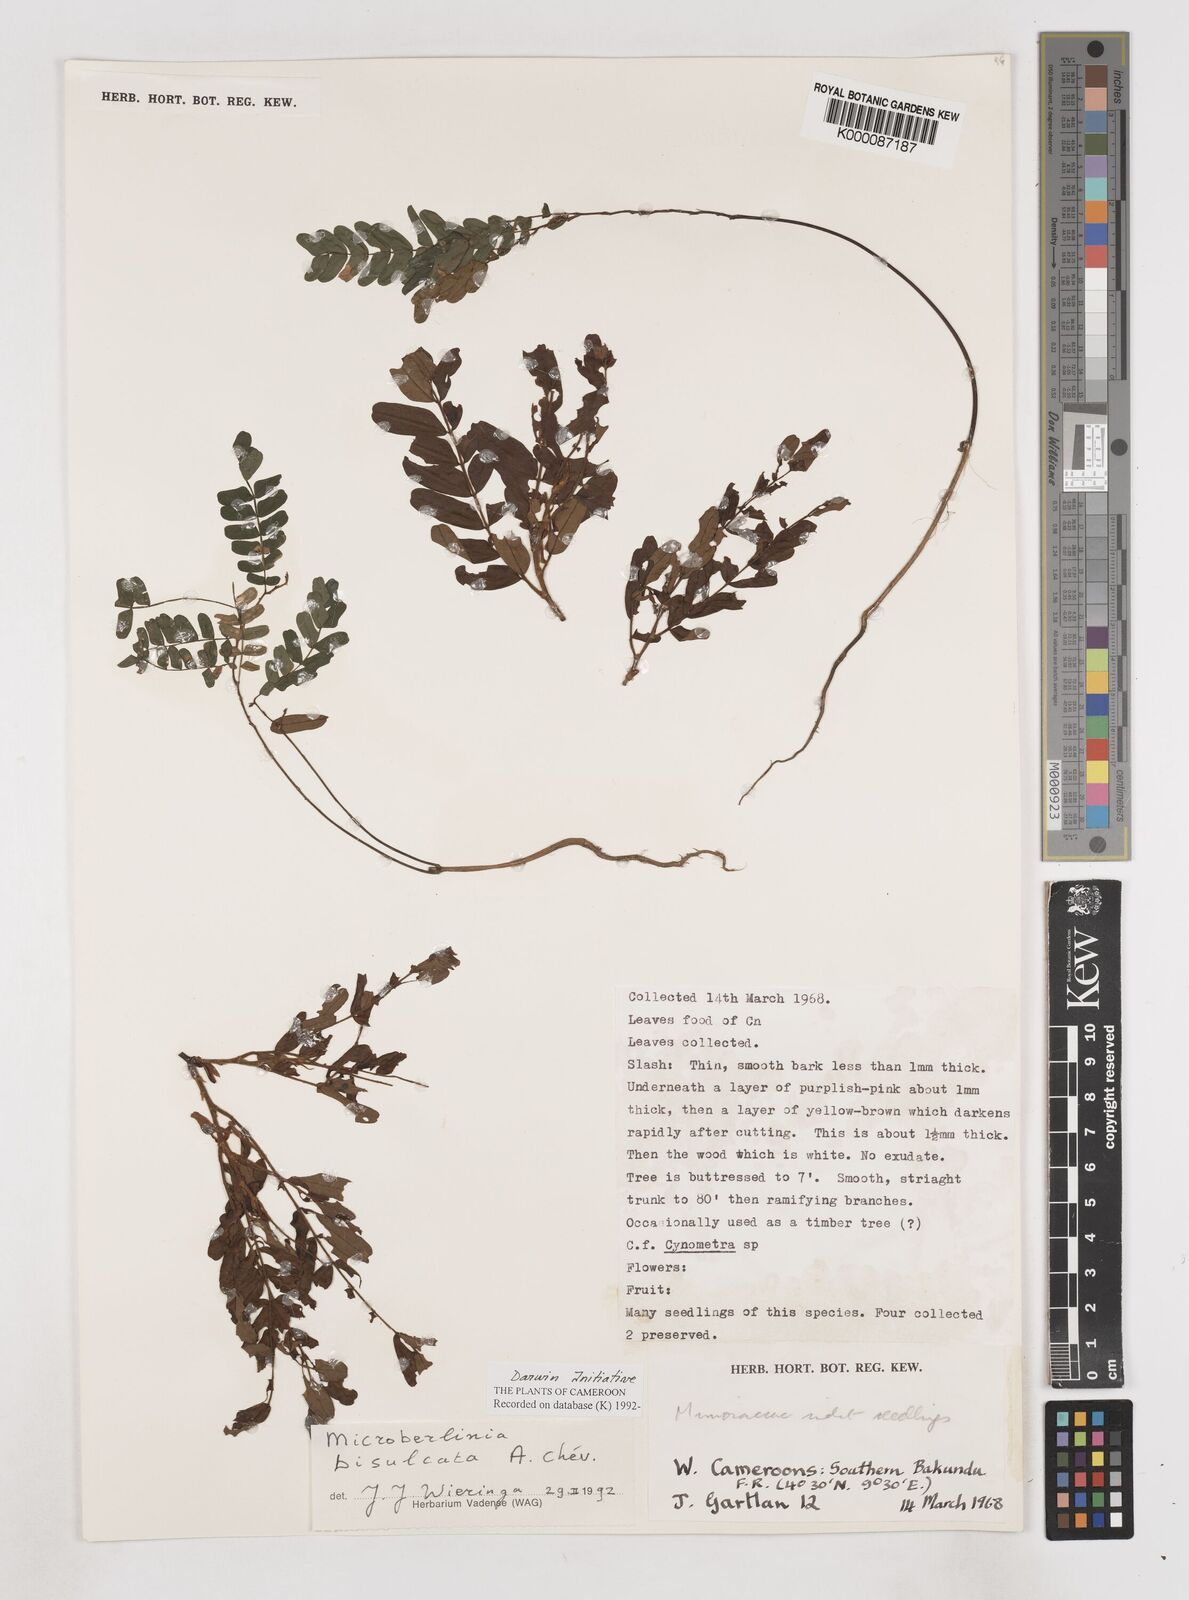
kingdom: Plantae
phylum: Tracheophyta
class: Magnoliopsida
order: Fabales
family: Fabaceae
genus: Microberlinia
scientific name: Microberlinia bisulcata
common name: Zingana
